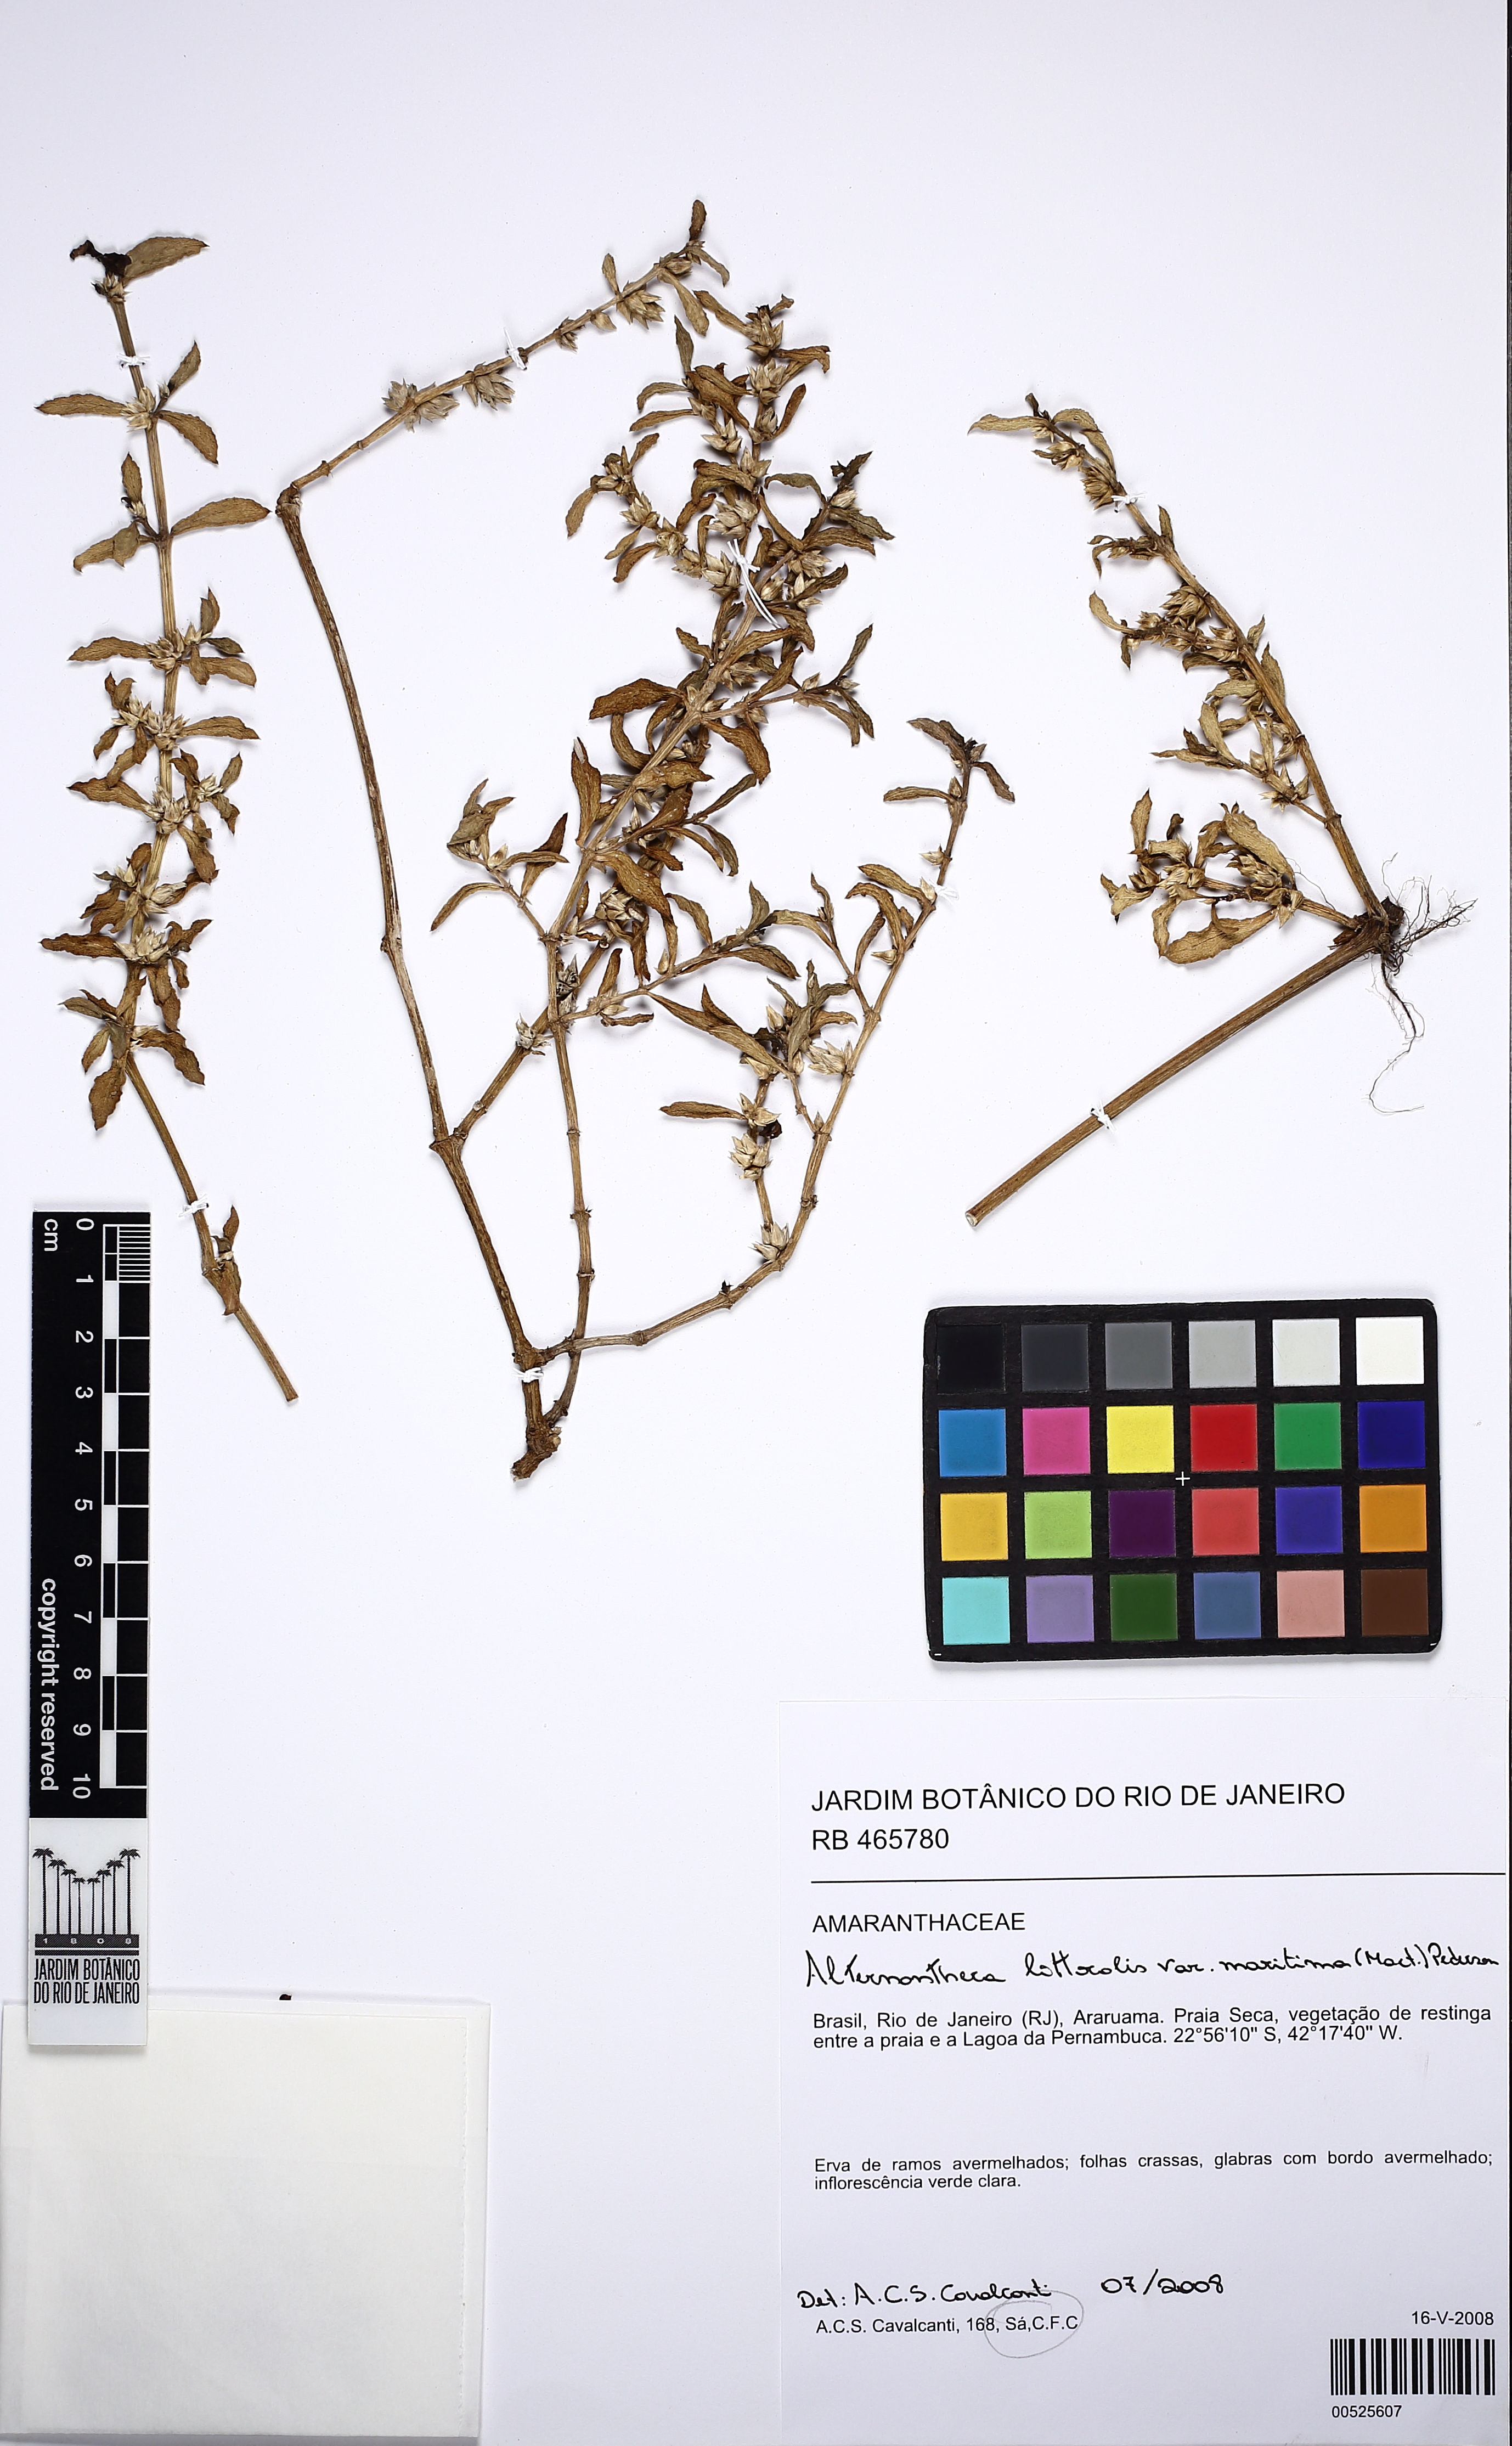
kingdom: Plantae
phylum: Tracheophyta
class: Magnoliopsida
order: Caryophyllales
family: Amaranthaceae
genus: Alternanthera
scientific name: Alternanthera littoralis
